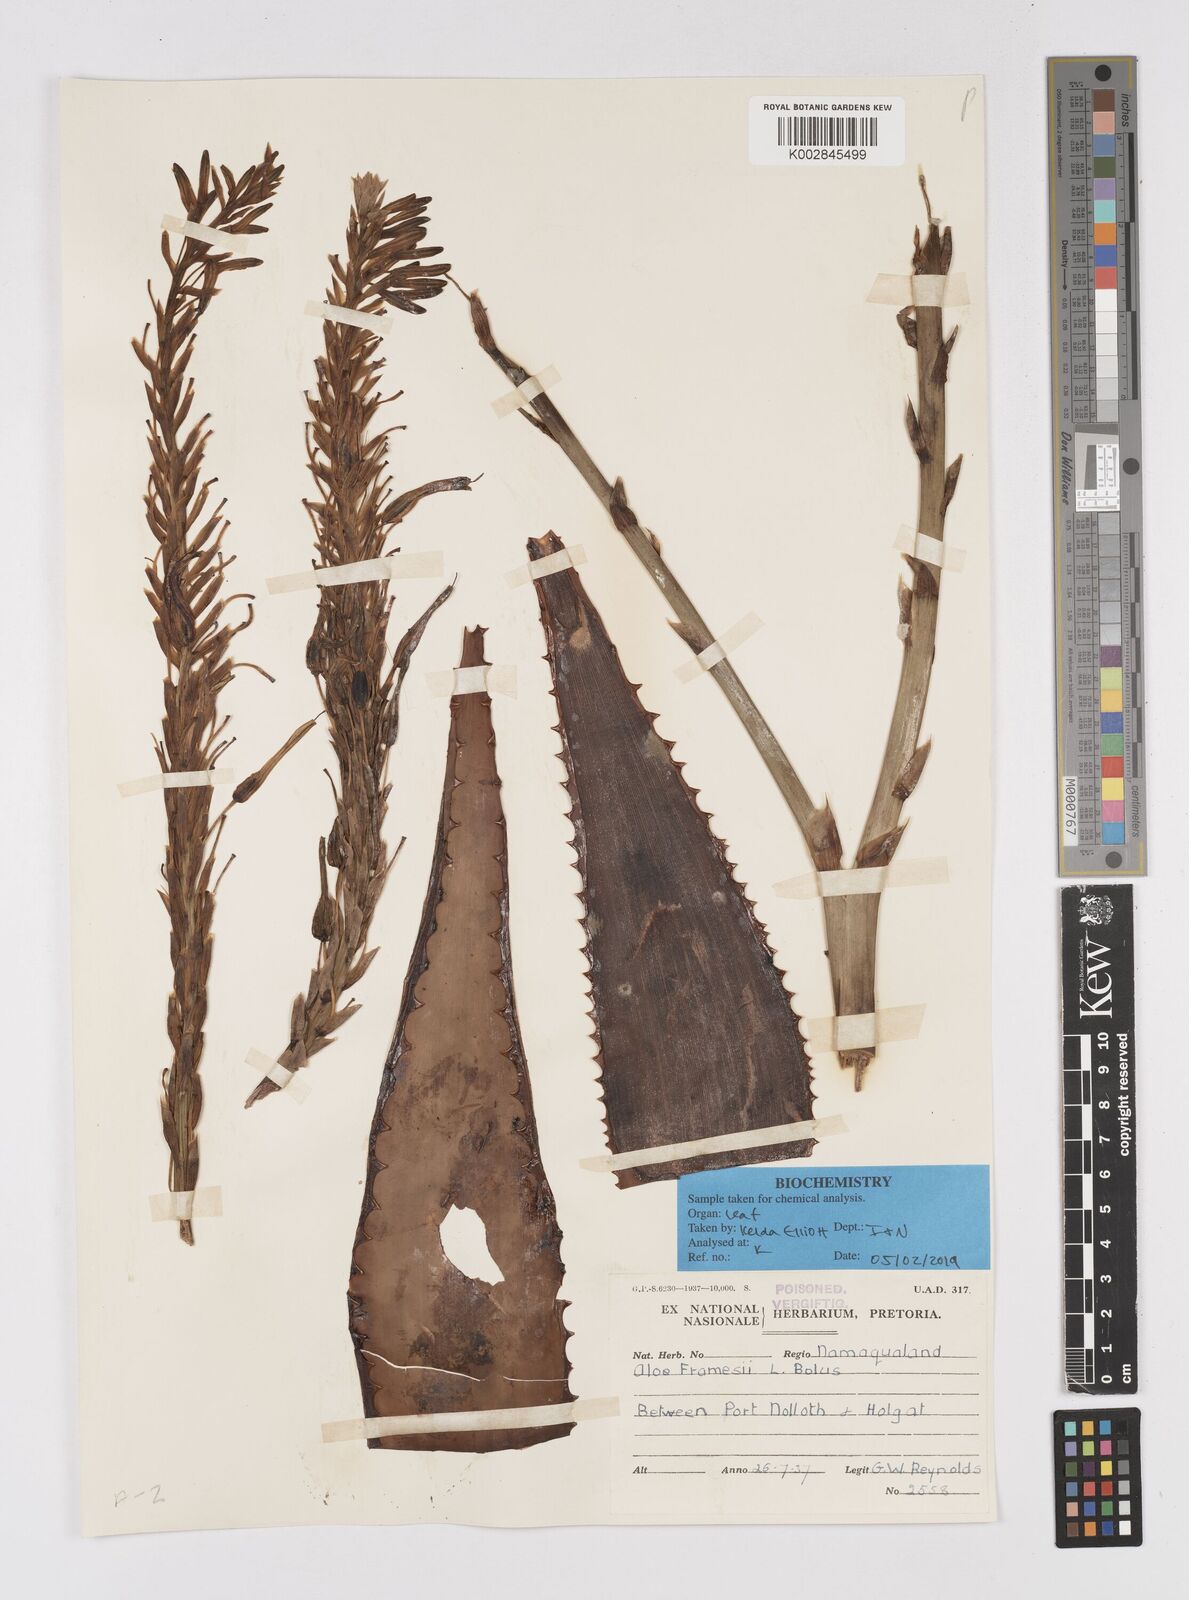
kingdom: Plantae
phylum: Tracheophyta
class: Liliopsida
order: Asparagales
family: Asphodelaceae
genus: Aloe
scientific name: Aloe microstigma
